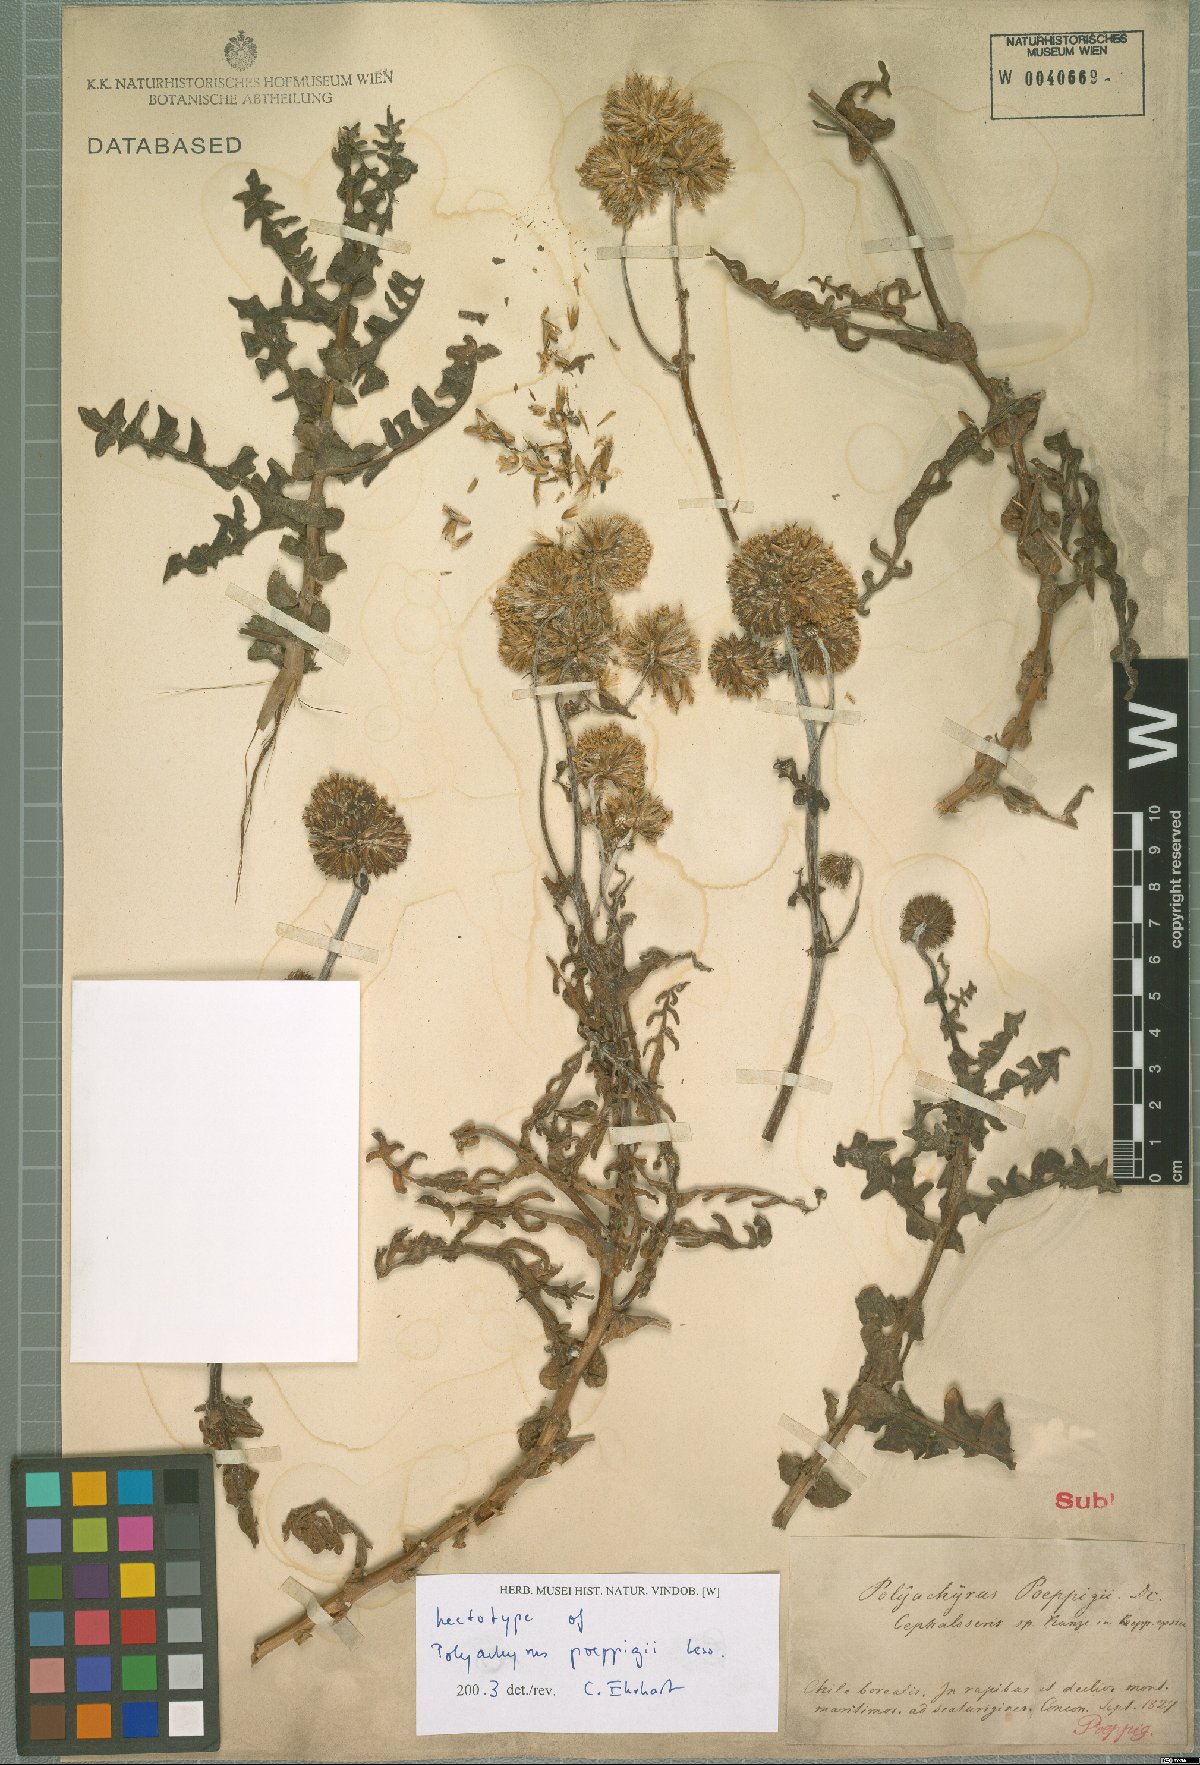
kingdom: Plantae
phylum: Tracheophyta
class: Magnoliopsida
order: Asterales
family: Asteraceae
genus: Polyachyrus
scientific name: Polyachyrus poeppigii
